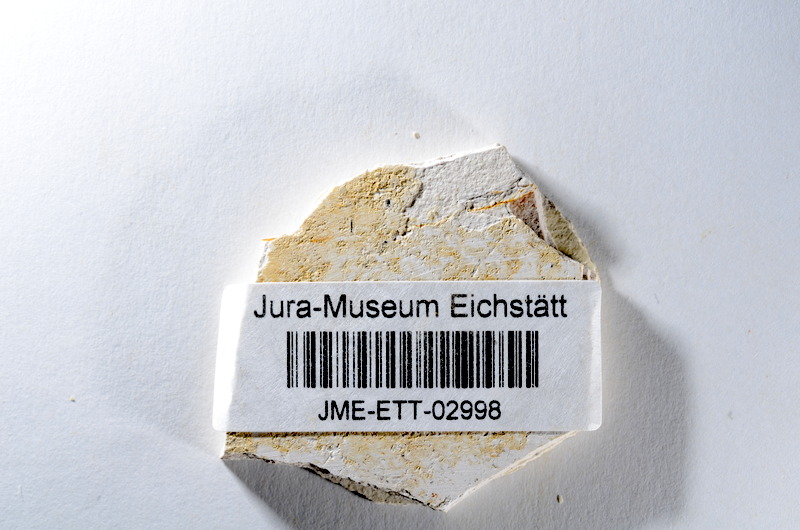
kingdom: Animalia
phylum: Chordata
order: Salmoniformes
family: Orthogonikleithridae
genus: Orthogonikleithrus
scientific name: Orthogonikleithrus hoelli
